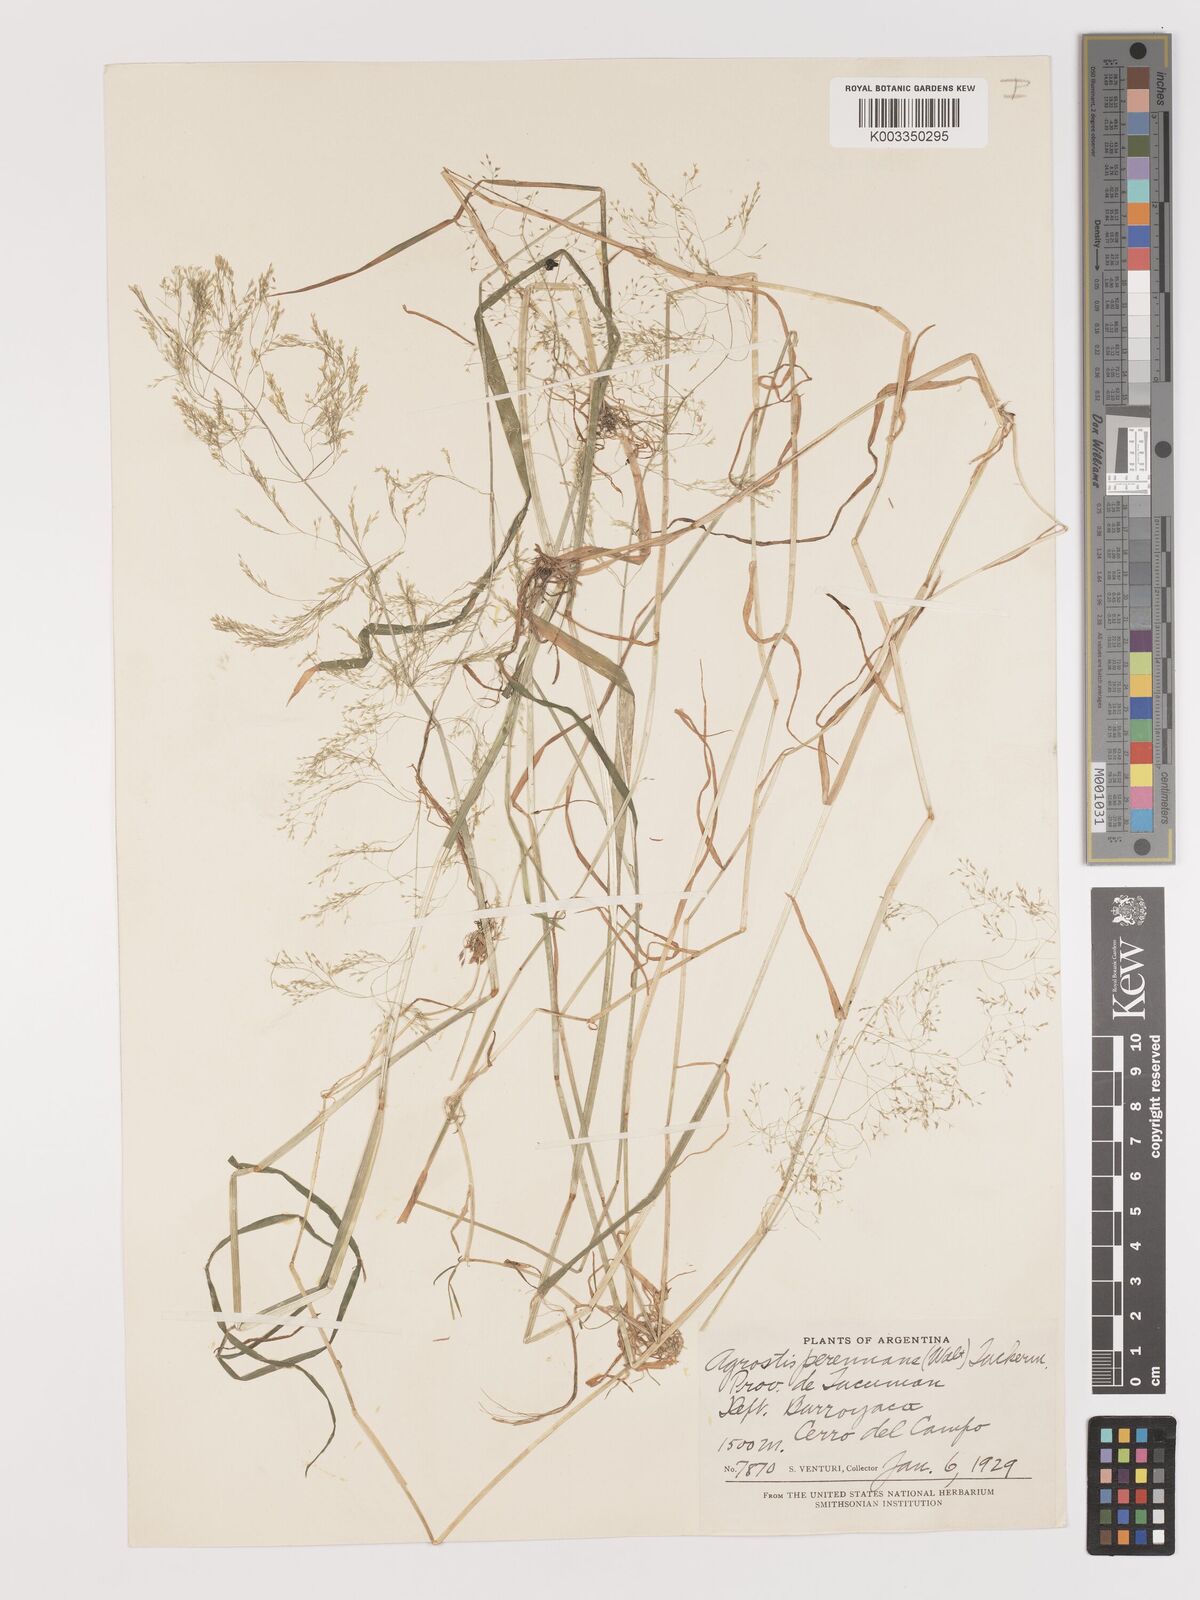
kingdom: Plantae
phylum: Tracheophyta
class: Liliopsida
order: Poales
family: Poaceae
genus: Agrostis
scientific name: Agrostis perennans
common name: Autumn bent
